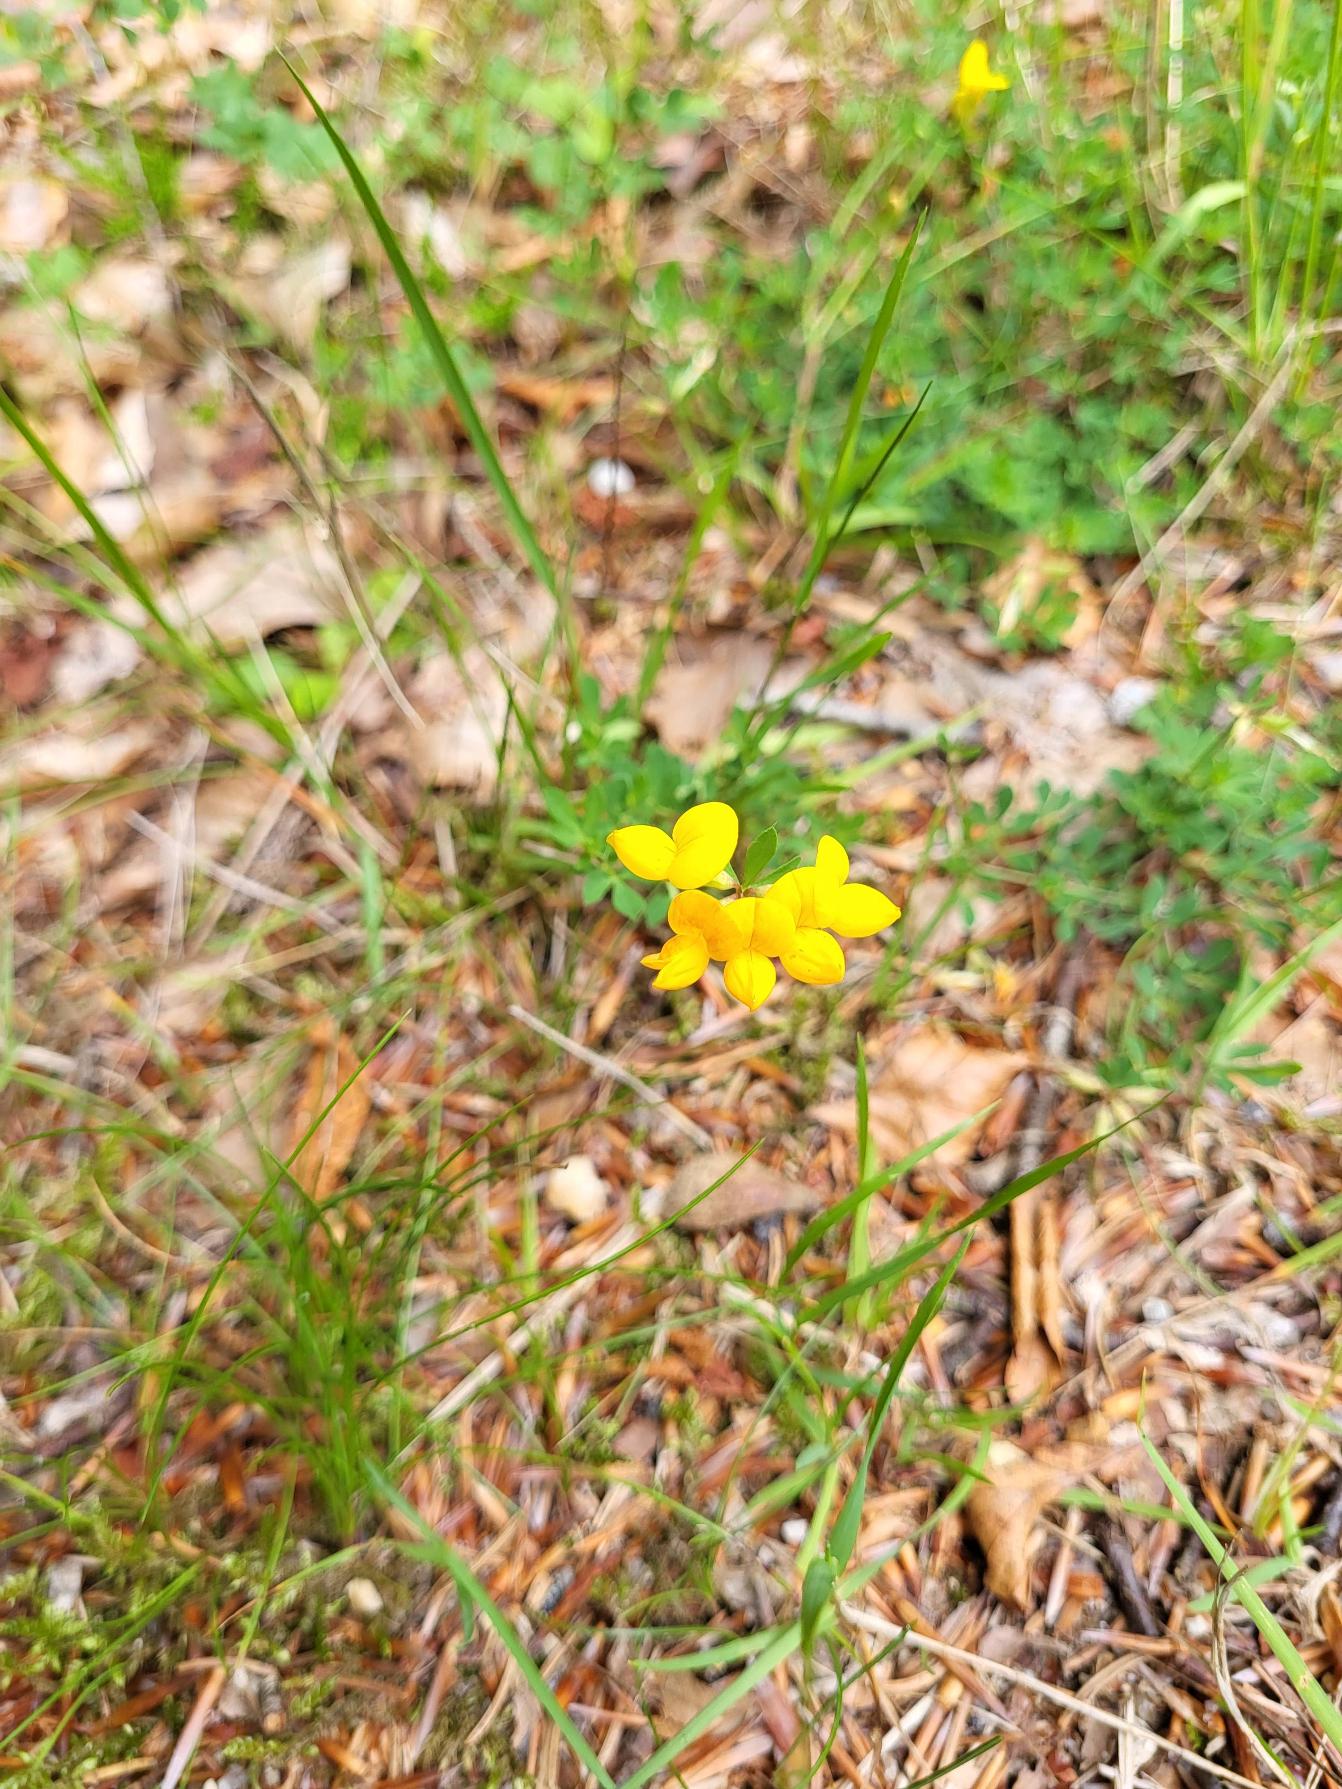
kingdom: Plantae
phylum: Tracheophyta
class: Magnoliopsida
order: Fabales
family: Fabaceae
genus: Lotus
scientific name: Lotus corniculatus
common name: Almindelig kællingetand
